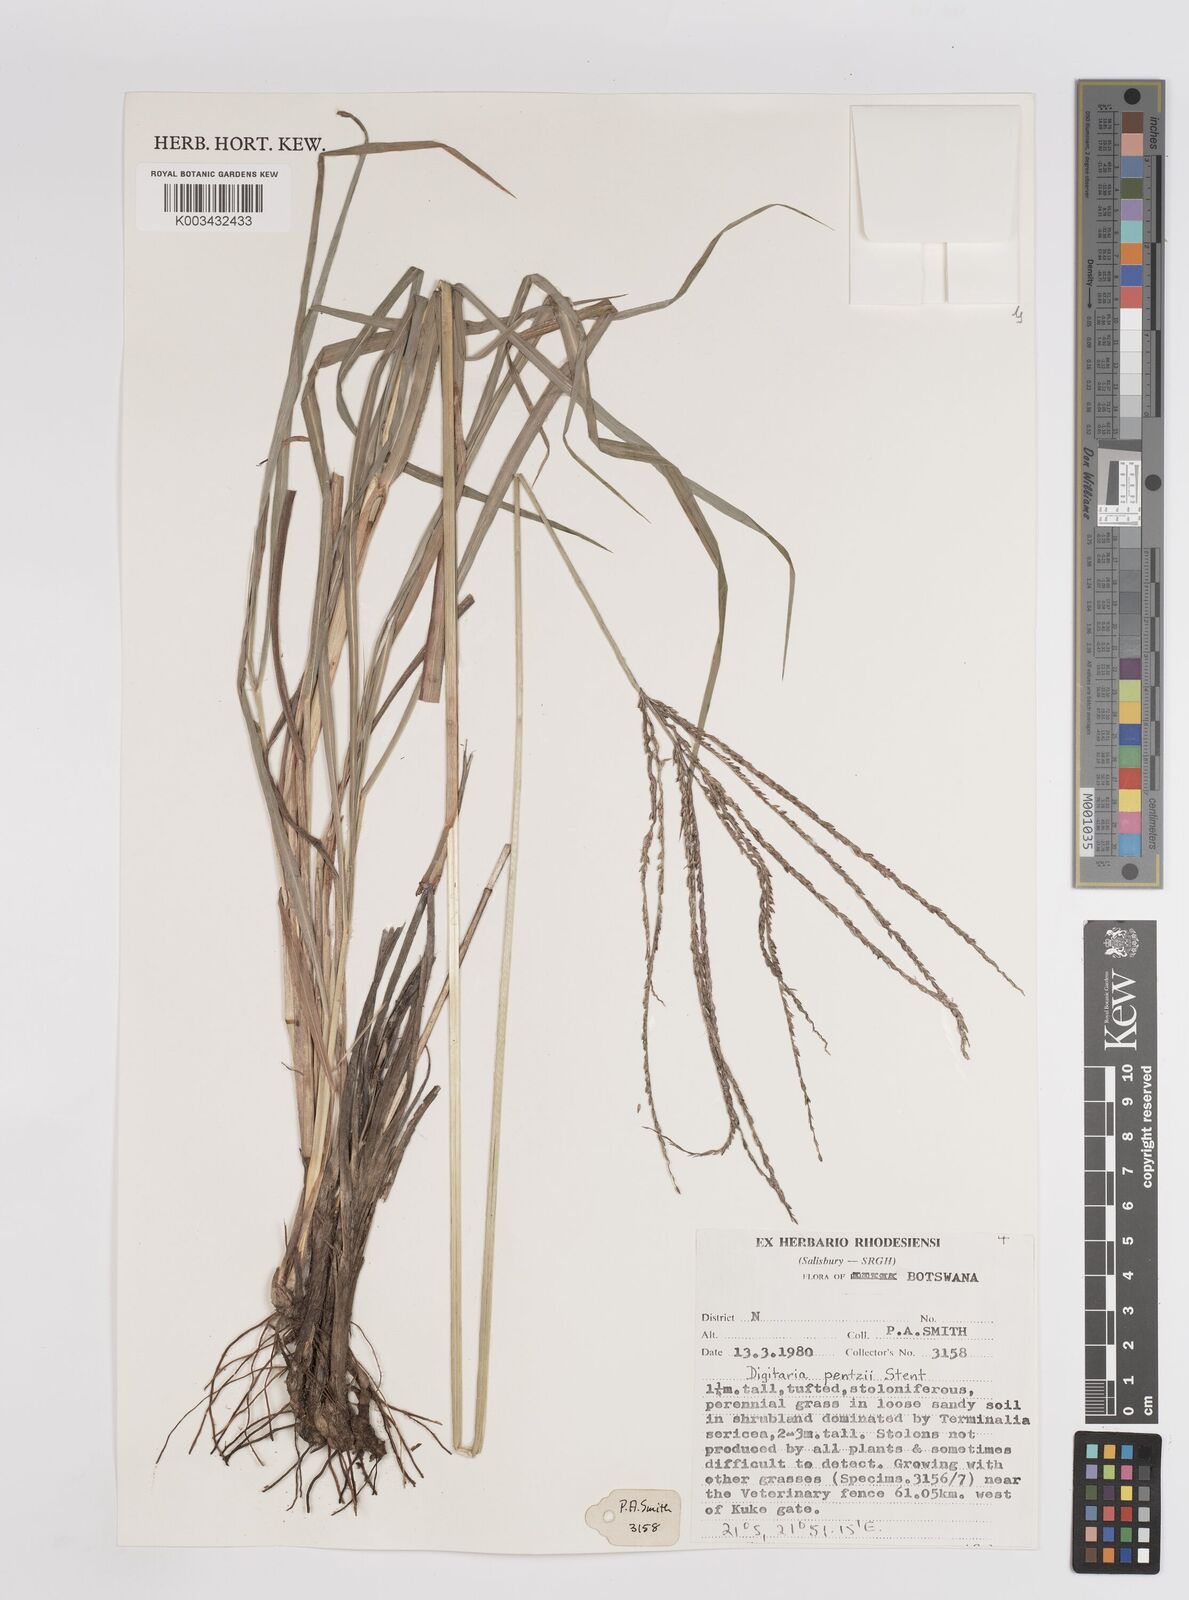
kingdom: Plantae
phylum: Tracheophyta
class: Liliopsida
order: Poales
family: Poaceae
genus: Digitaria
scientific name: Digitaria eriantha
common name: Digitgrass
